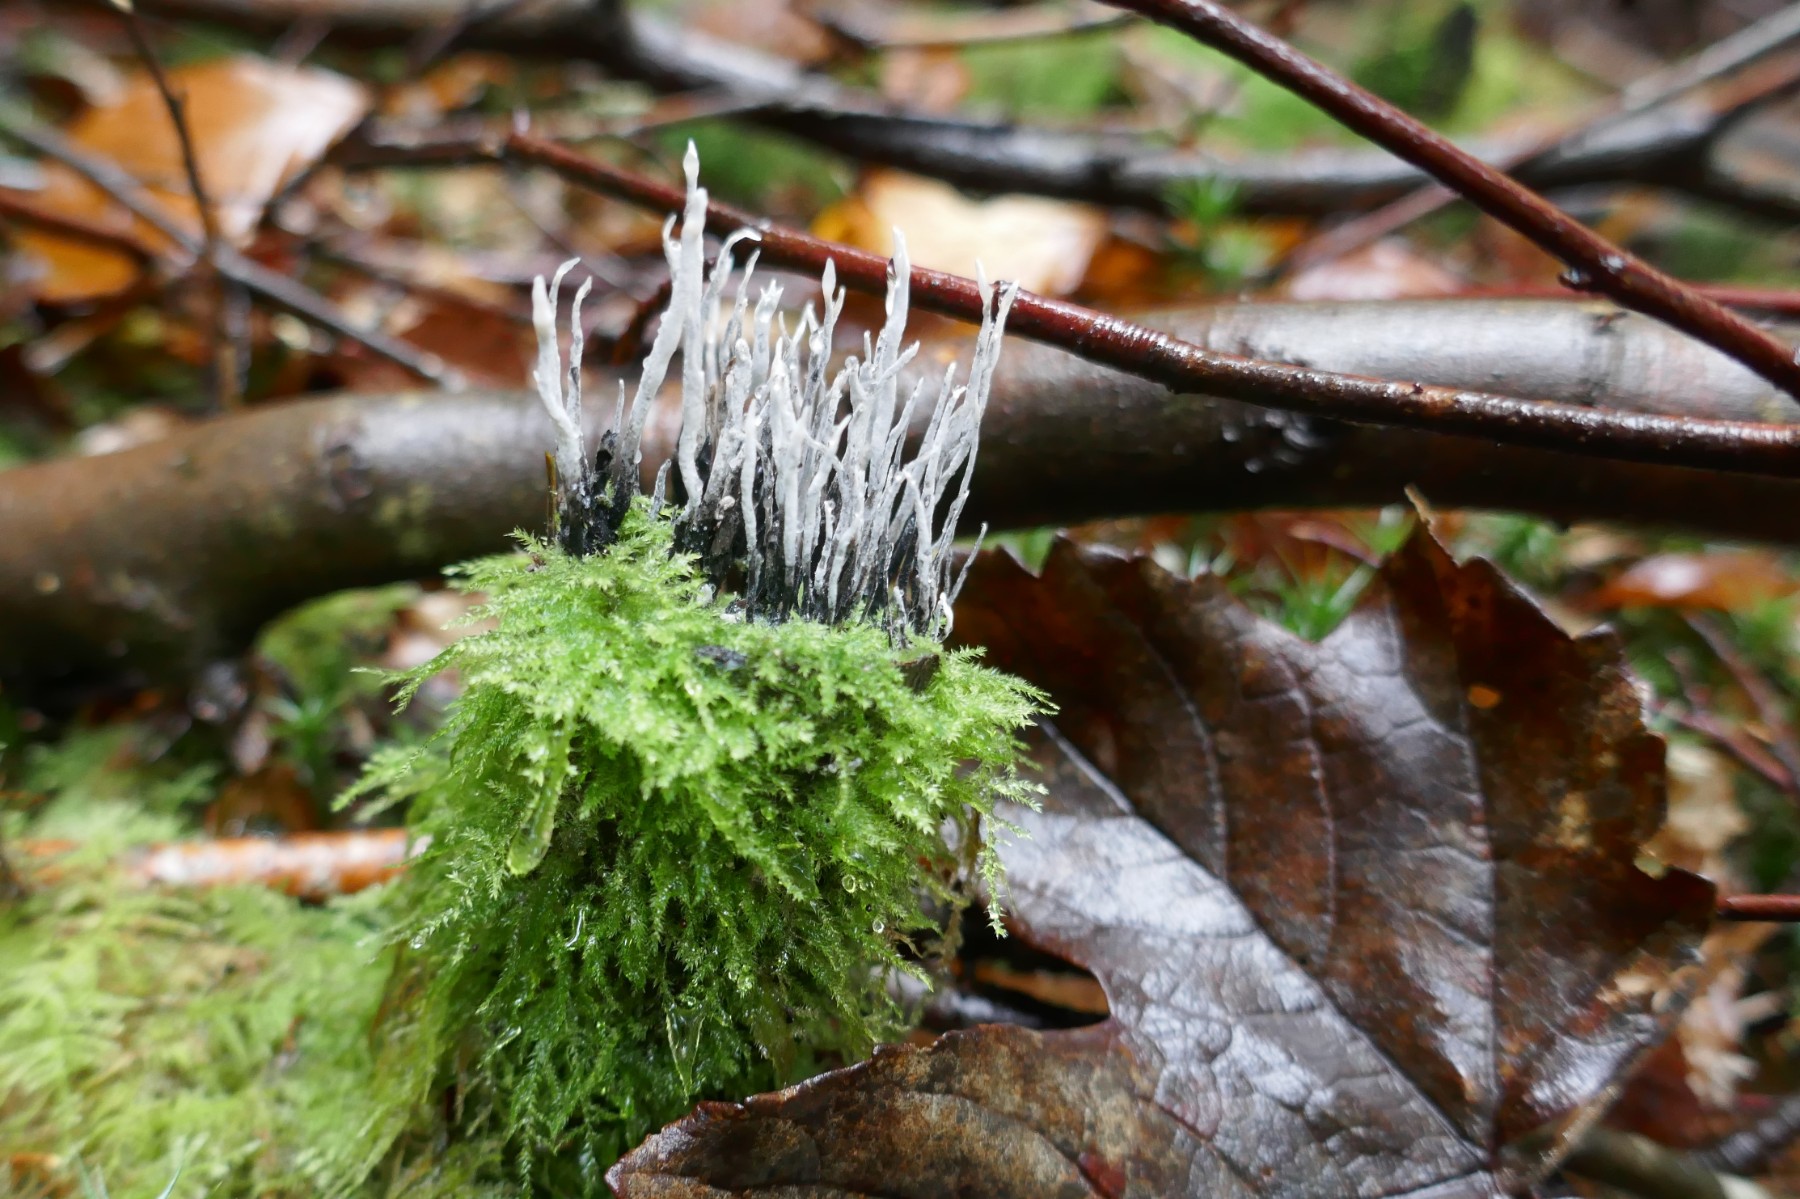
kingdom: Fungi
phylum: Ascomycota
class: Sordariomycetes
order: Xylariales
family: Xylariaceae
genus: Xylaria
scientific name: Xylaria hypoxylon
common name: grenet stødsvamp
